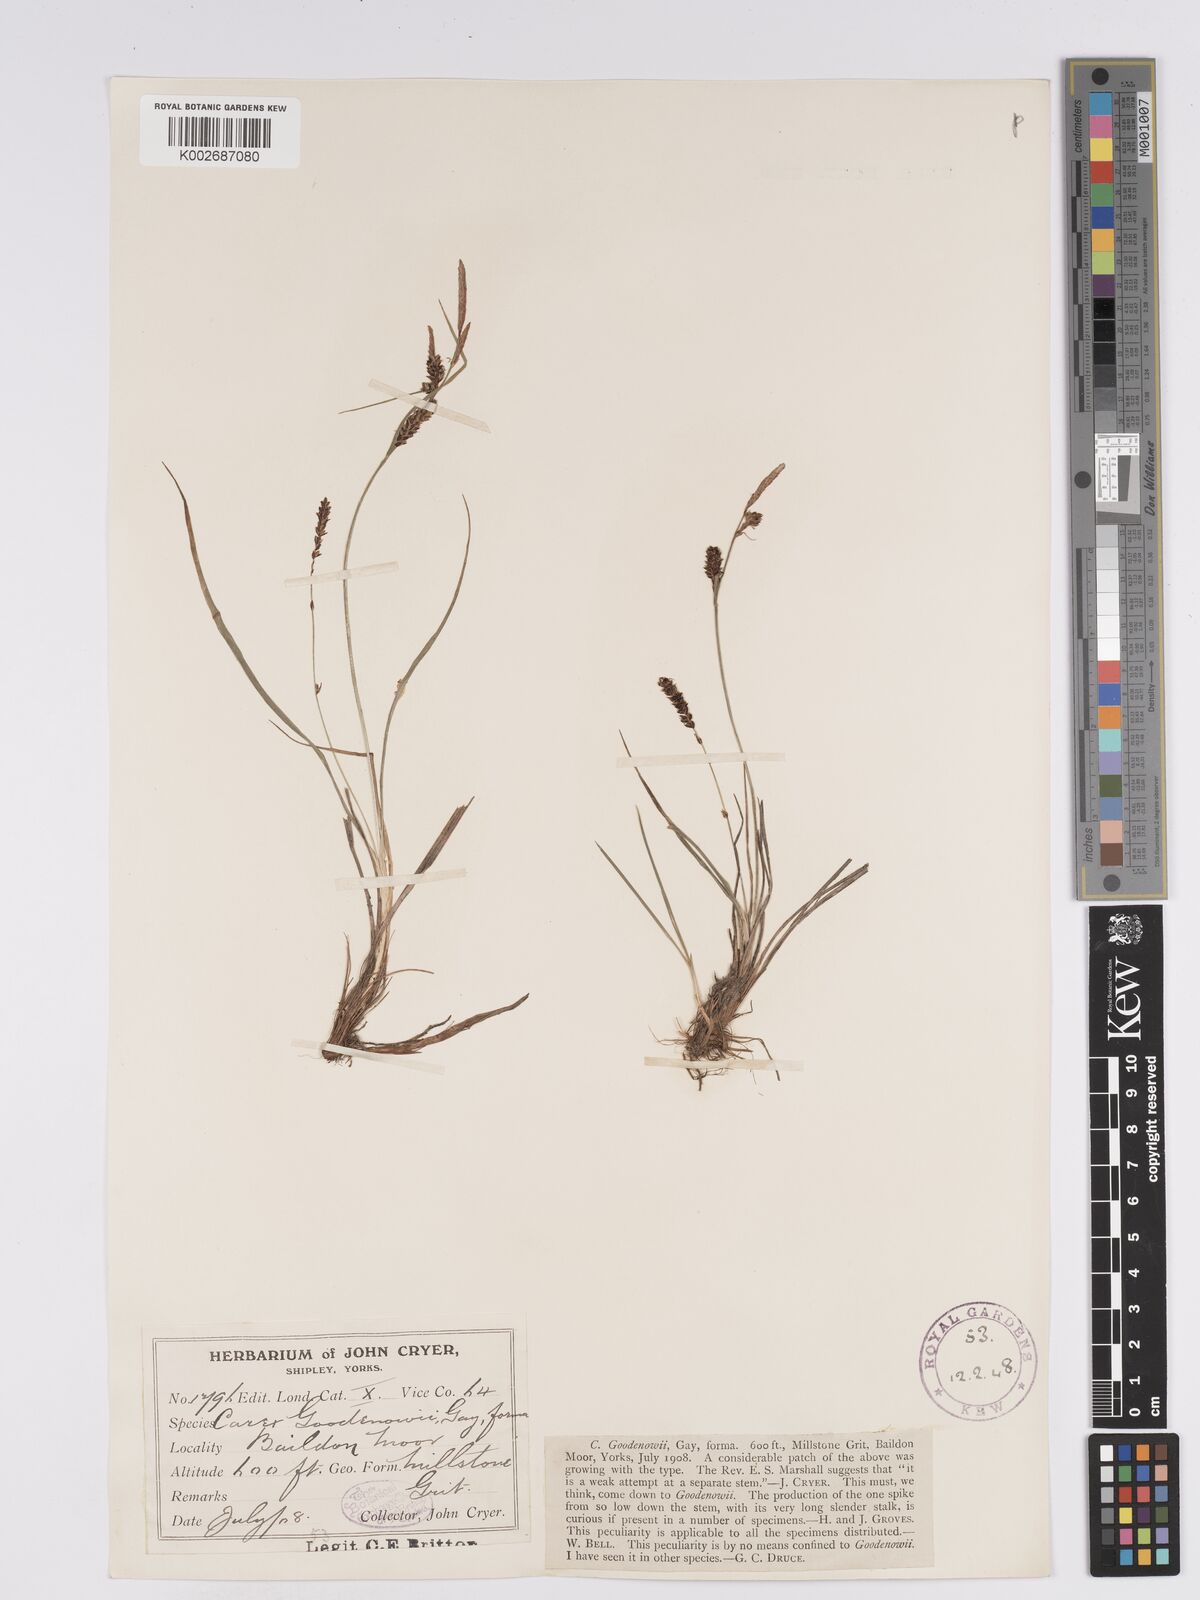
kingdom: Plantae
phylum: Tracheophyta
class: Liliopsida
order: Poales
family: Cyperaceae
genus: Carex
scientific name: Carex nigra
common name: Common sedge
